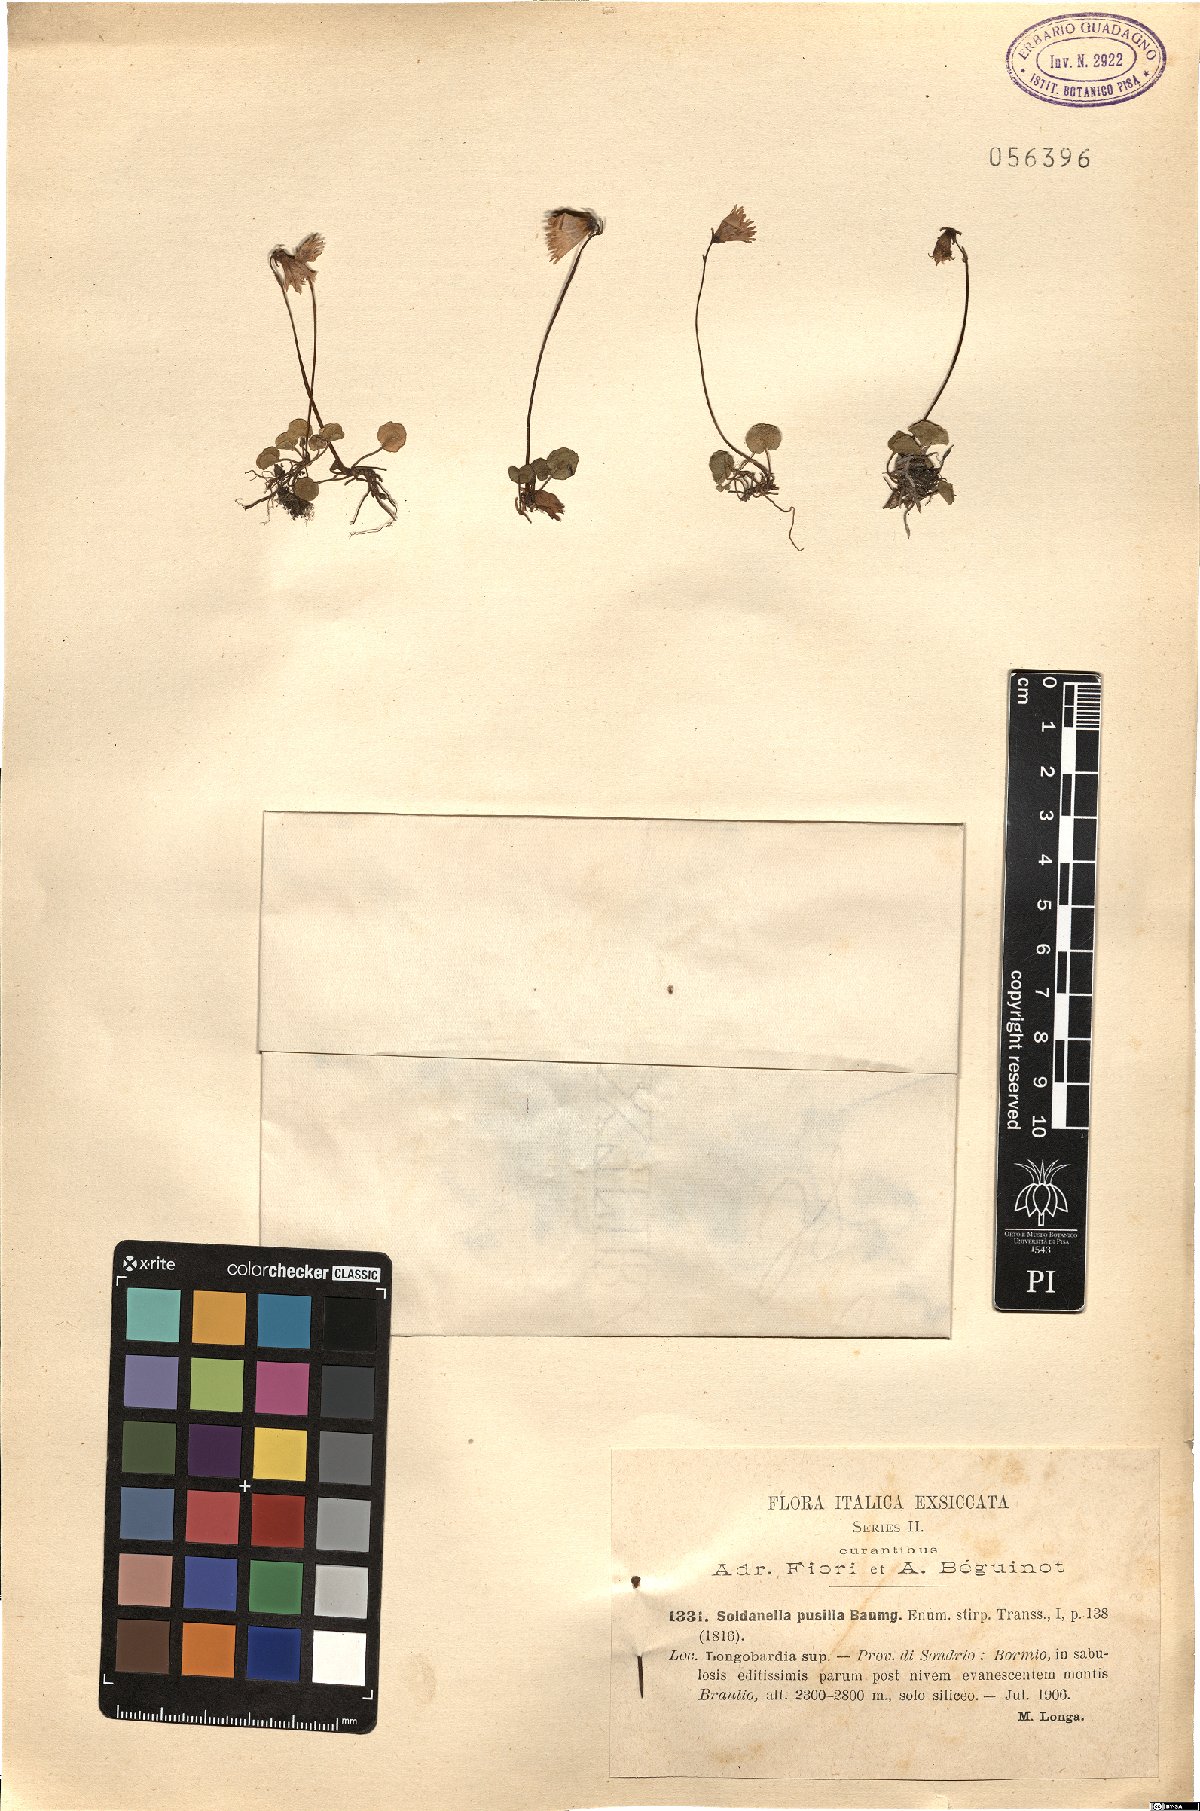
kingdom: Plantae
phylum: Tracheophyta
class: Magnoliopsida
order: Ericales
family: Primulaceae
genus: Soldanella
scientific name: Soldanella pusilla
